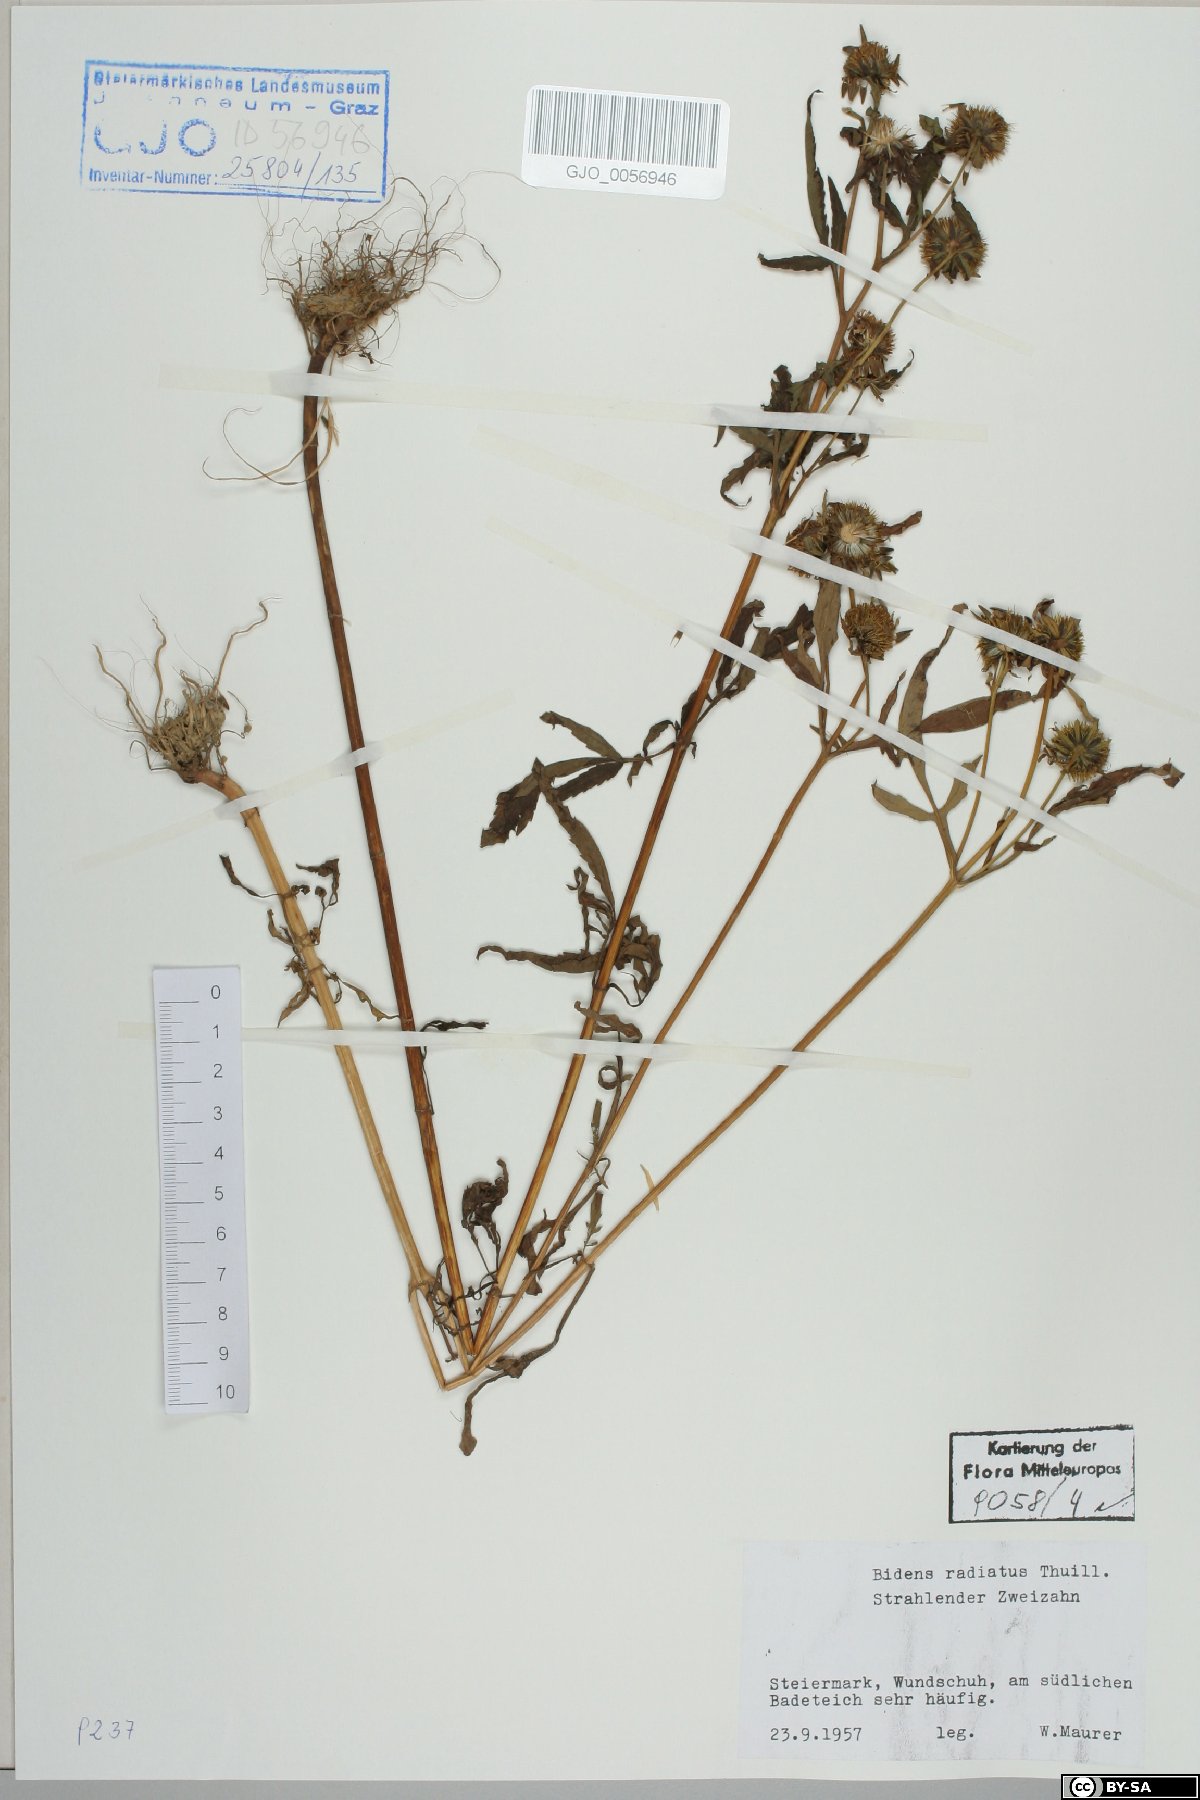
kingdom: Plantae
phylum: Tracheophyta
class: Magnoliopsida
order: Asterales
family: Asteraceae
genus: Bidens
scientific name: Bidens radiata
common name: Radiating bur-marigold
